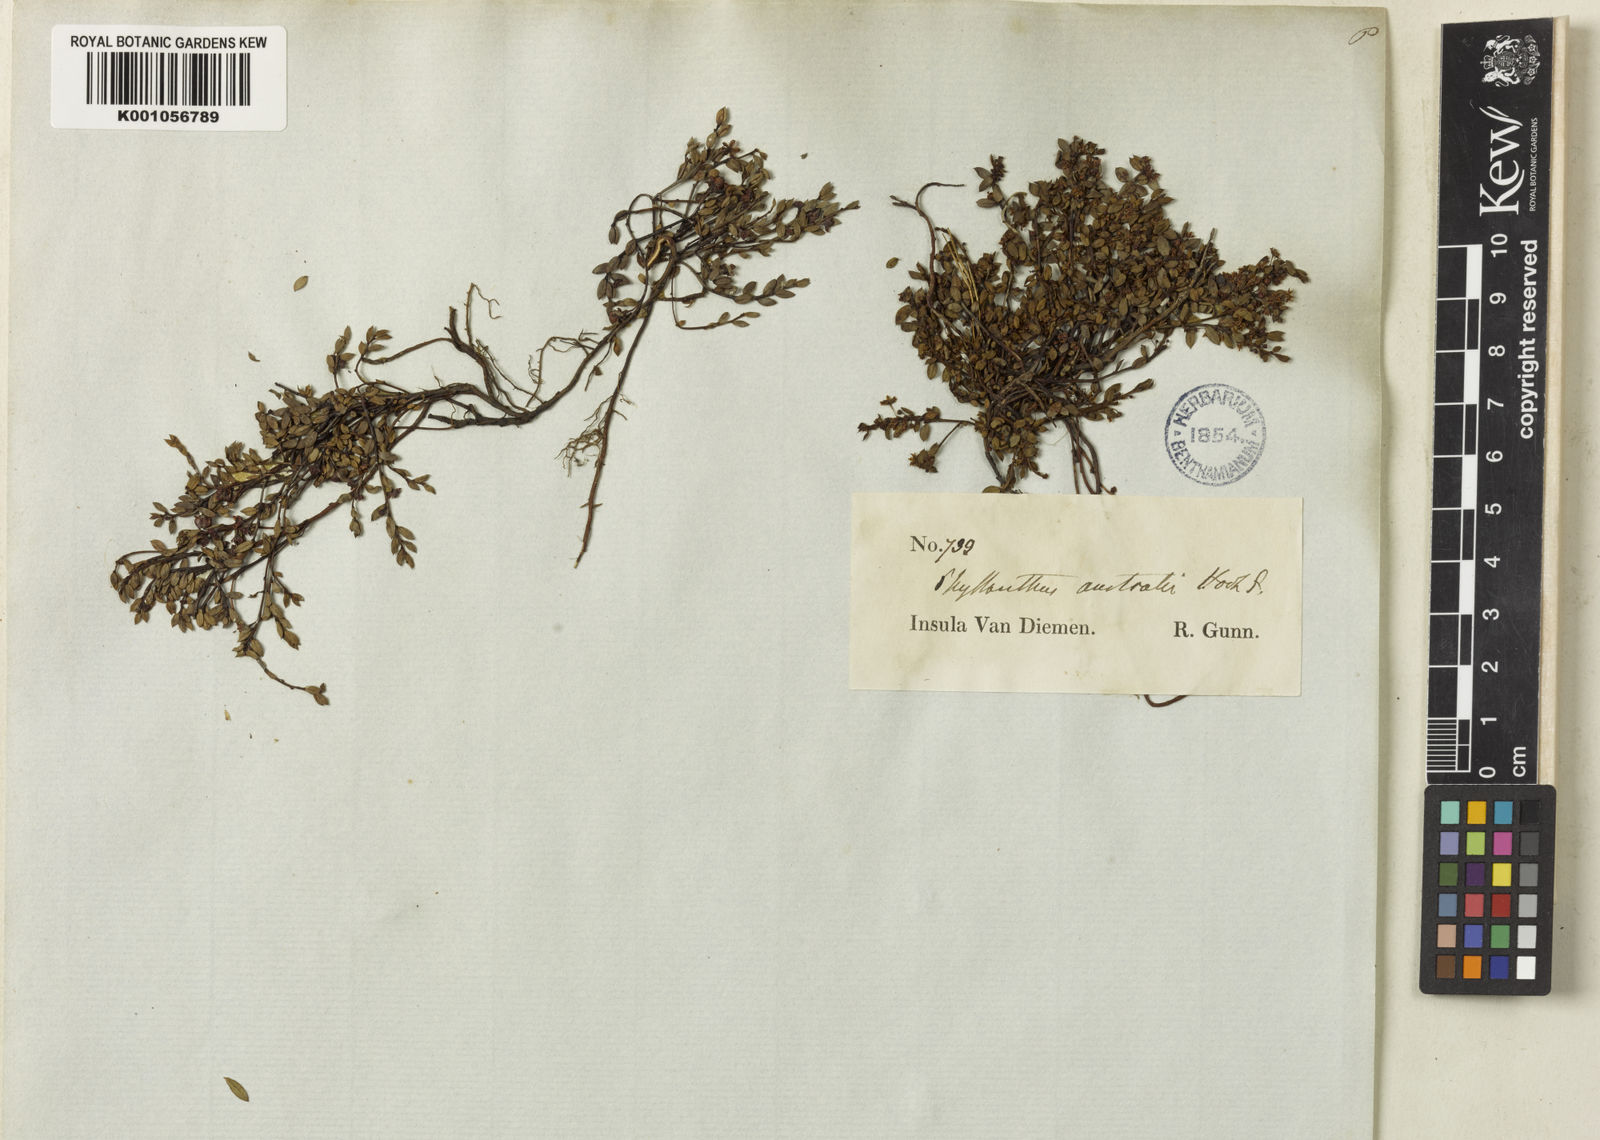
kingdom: Plantae
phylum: Tracheophyta
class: Magnoliopsida
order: Malpighiales
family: Phyllanthaceae
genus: Phyllanthus
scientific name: Phyllanthus australis
